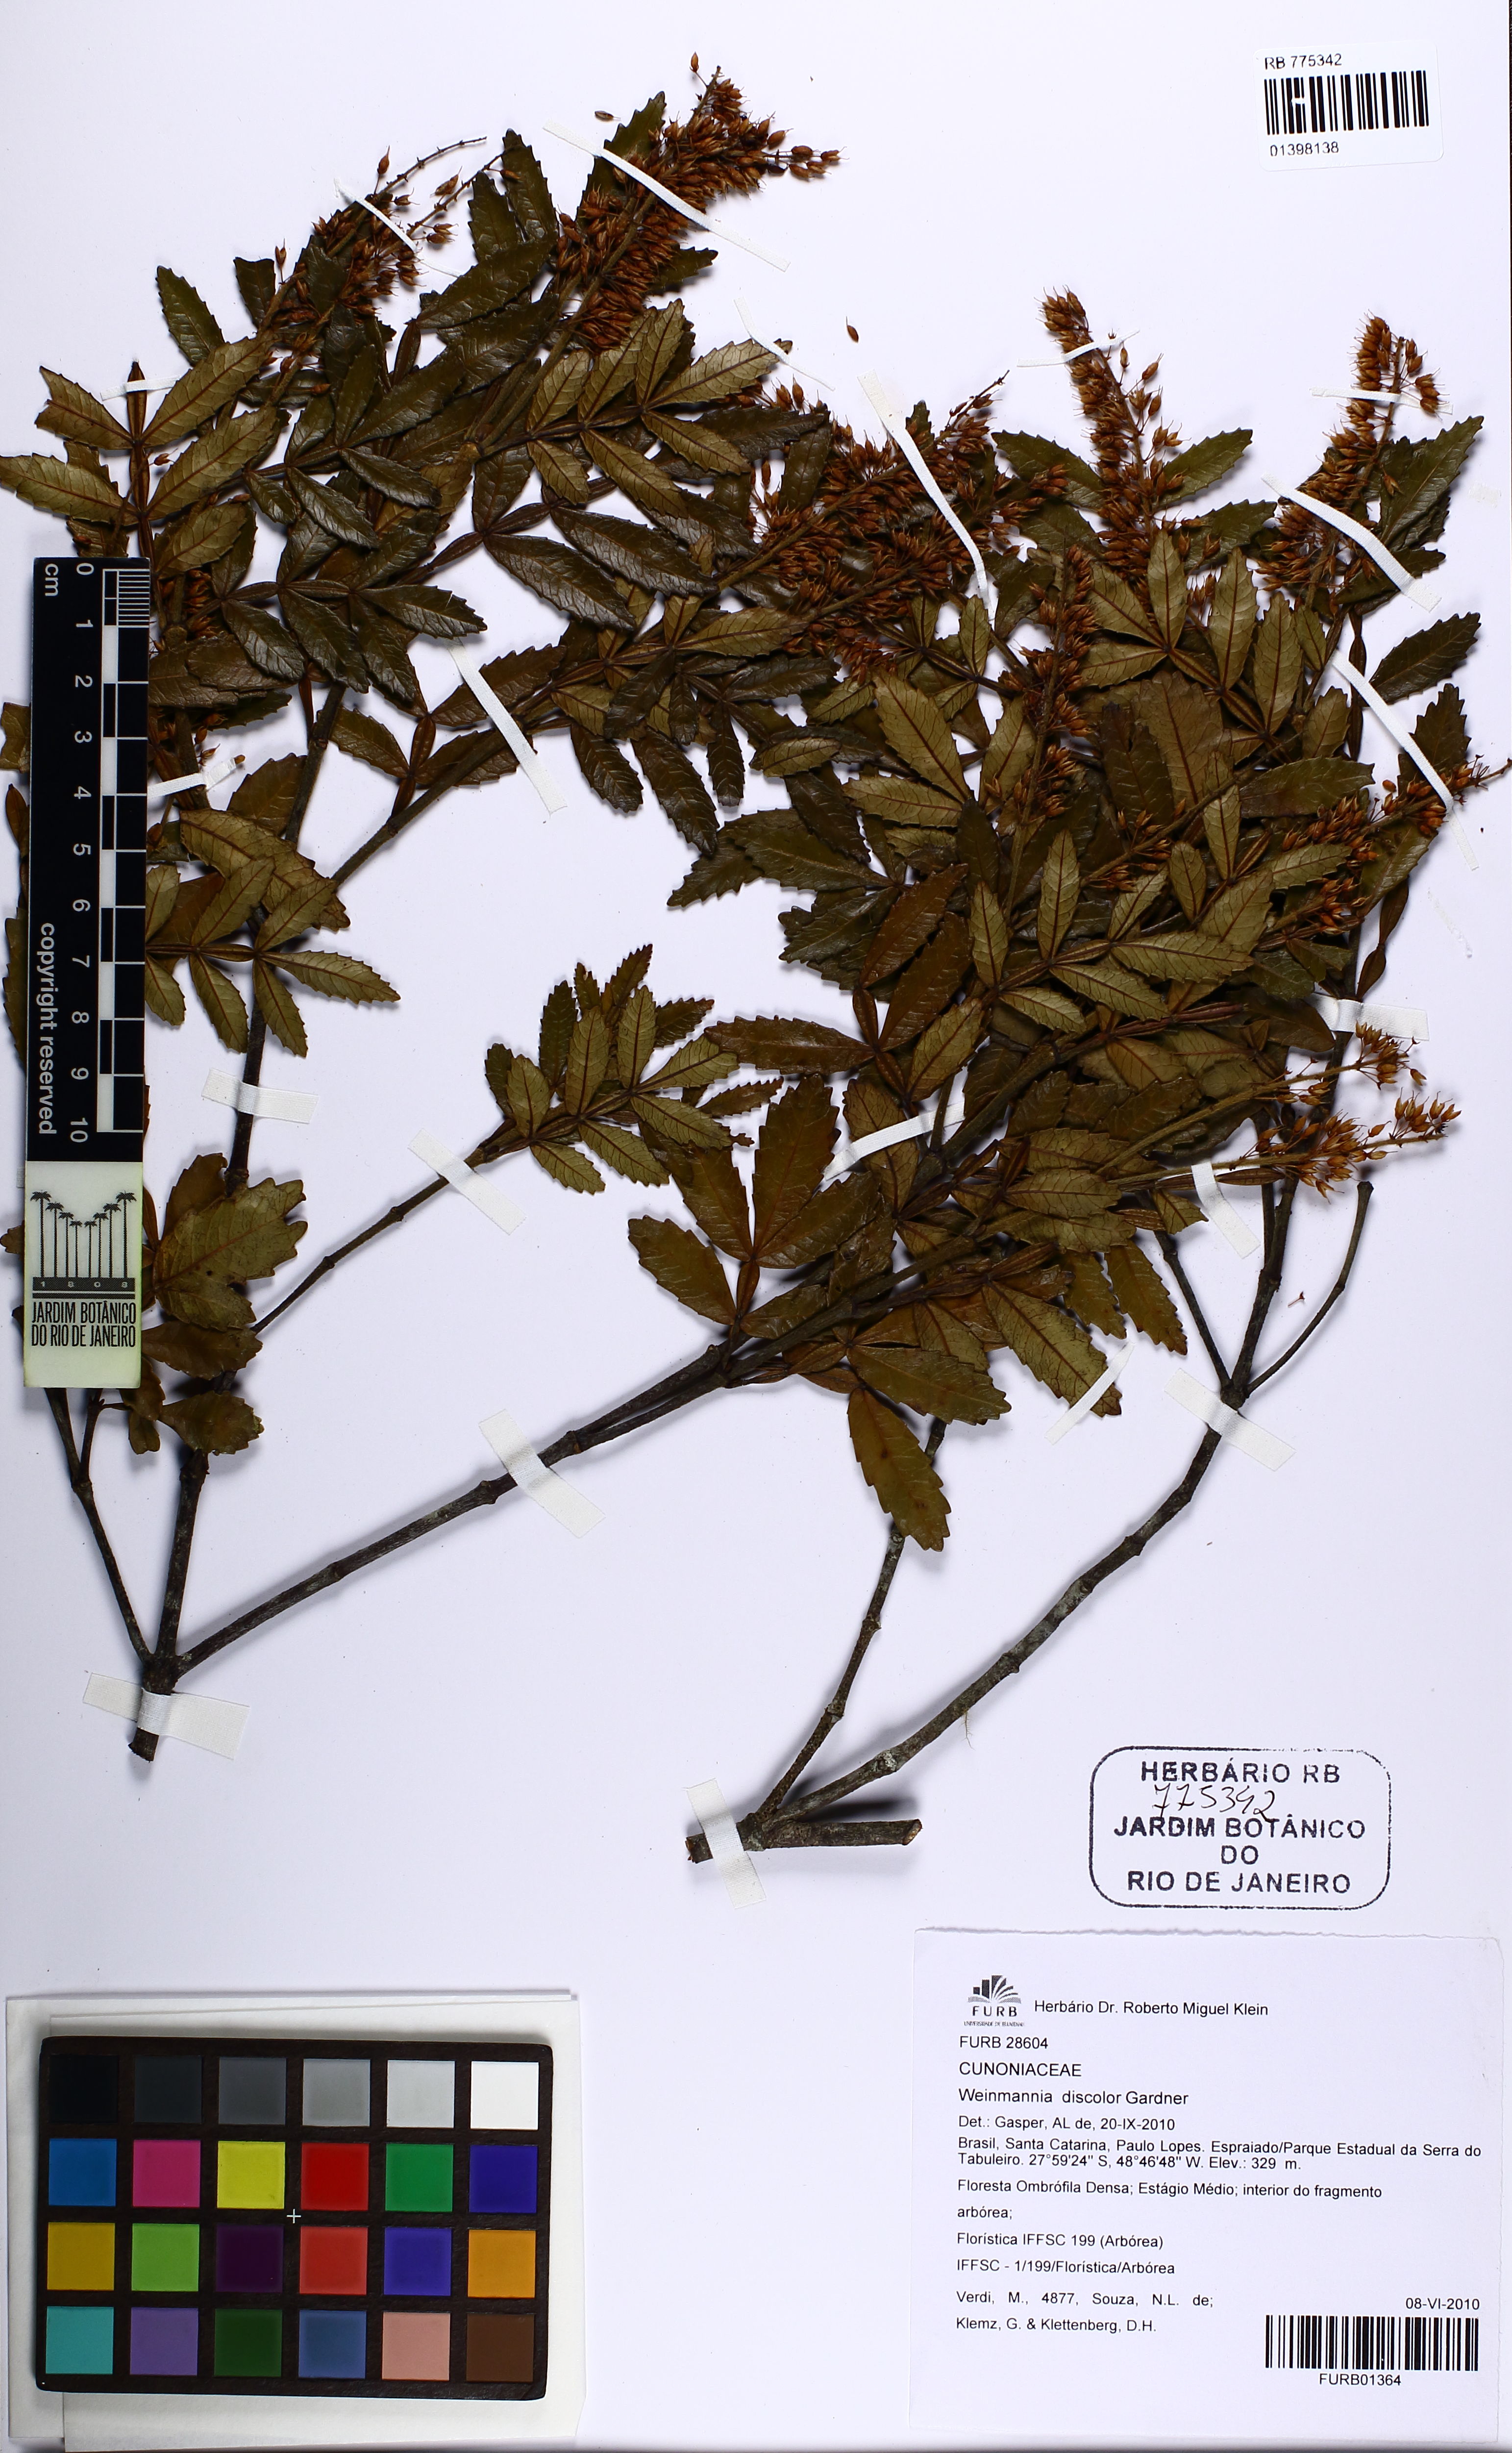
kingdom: Plantae
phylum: Tracheophyta
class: Magnoliopsida
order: Oxalidales
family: Cunoniaceae
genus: Weinmannia
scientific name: Weinmannia discolor
